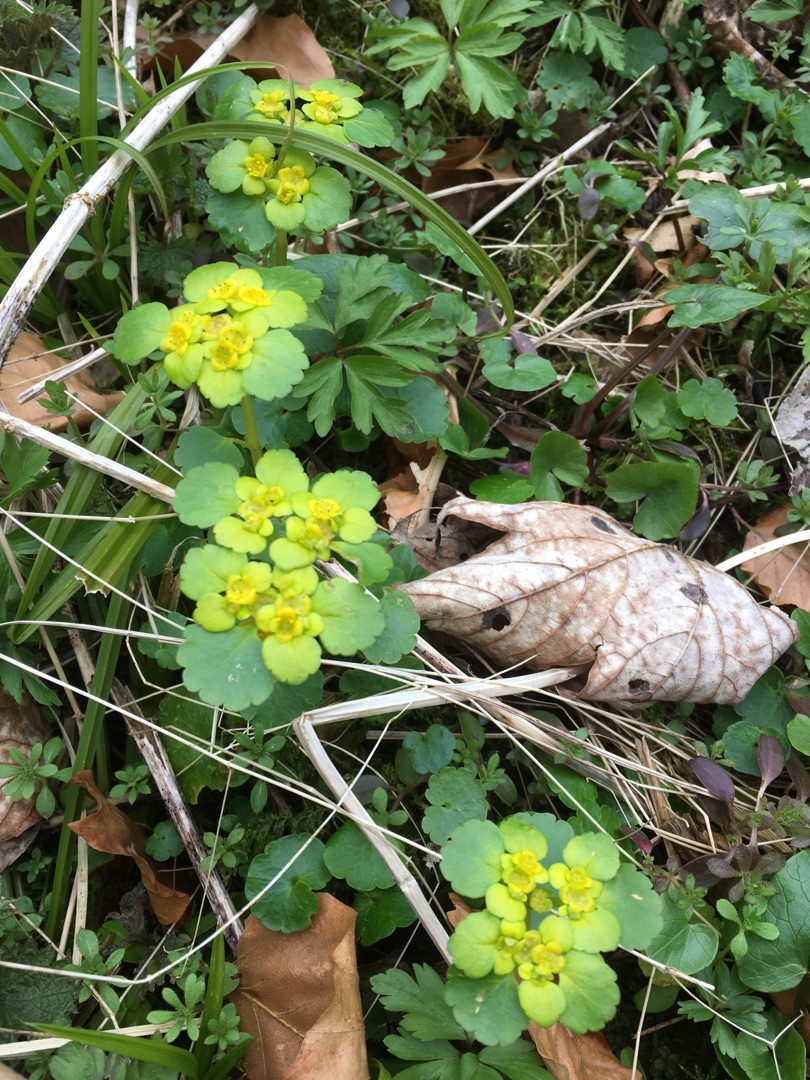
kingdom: Plantae
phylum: Tracheophyta
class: Magnoliopsida
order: Saxifragales
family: Saxifragaceae
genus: Chrysosplenium
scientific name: Chrysosplenium alternifolium
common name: Almindelig milturt
